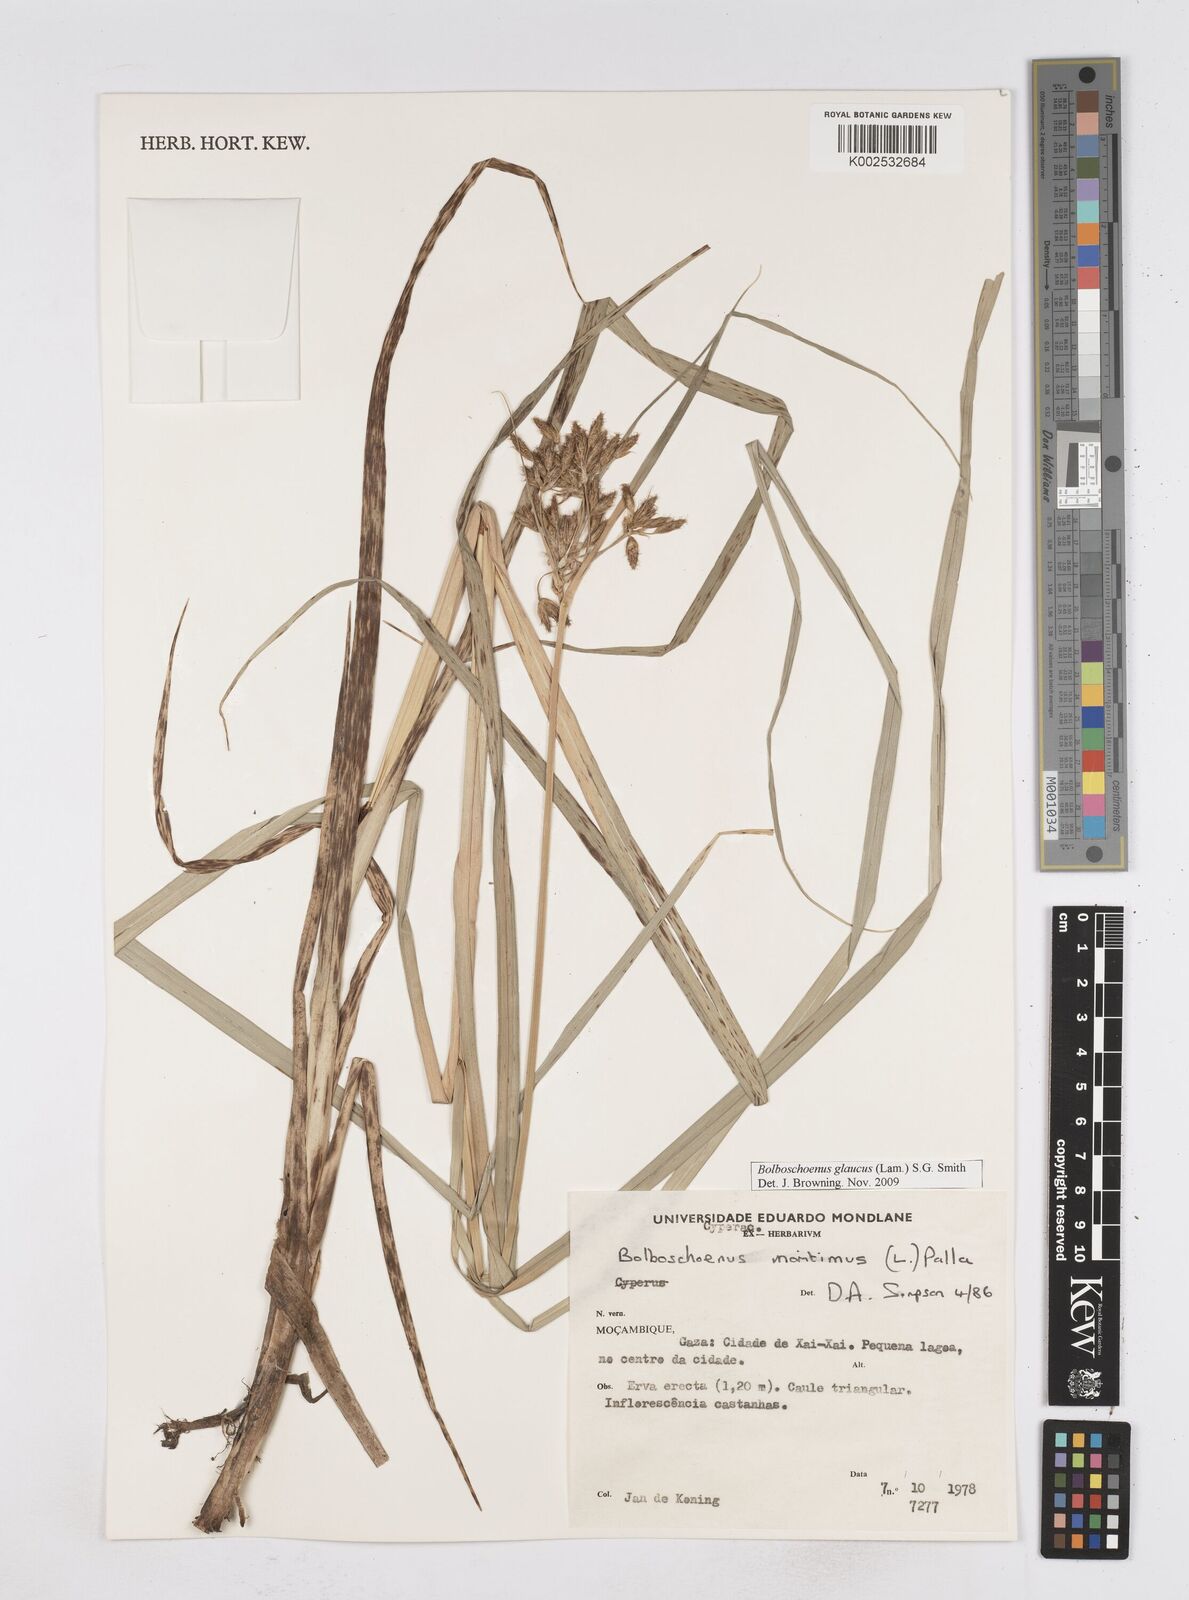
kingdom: Plantae
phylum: Tracheophyta
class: Liliopsida
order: Poales
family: Cyperaceae
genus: Bolboschoenus
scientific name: Bolboschoenus glaucus
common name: Tuberous bulrush
